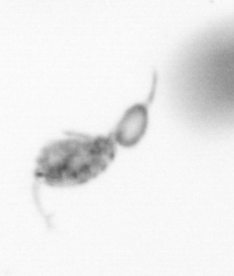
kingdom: Animalia
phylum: Arthropoda
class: Copepoda
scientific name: Copepoda
